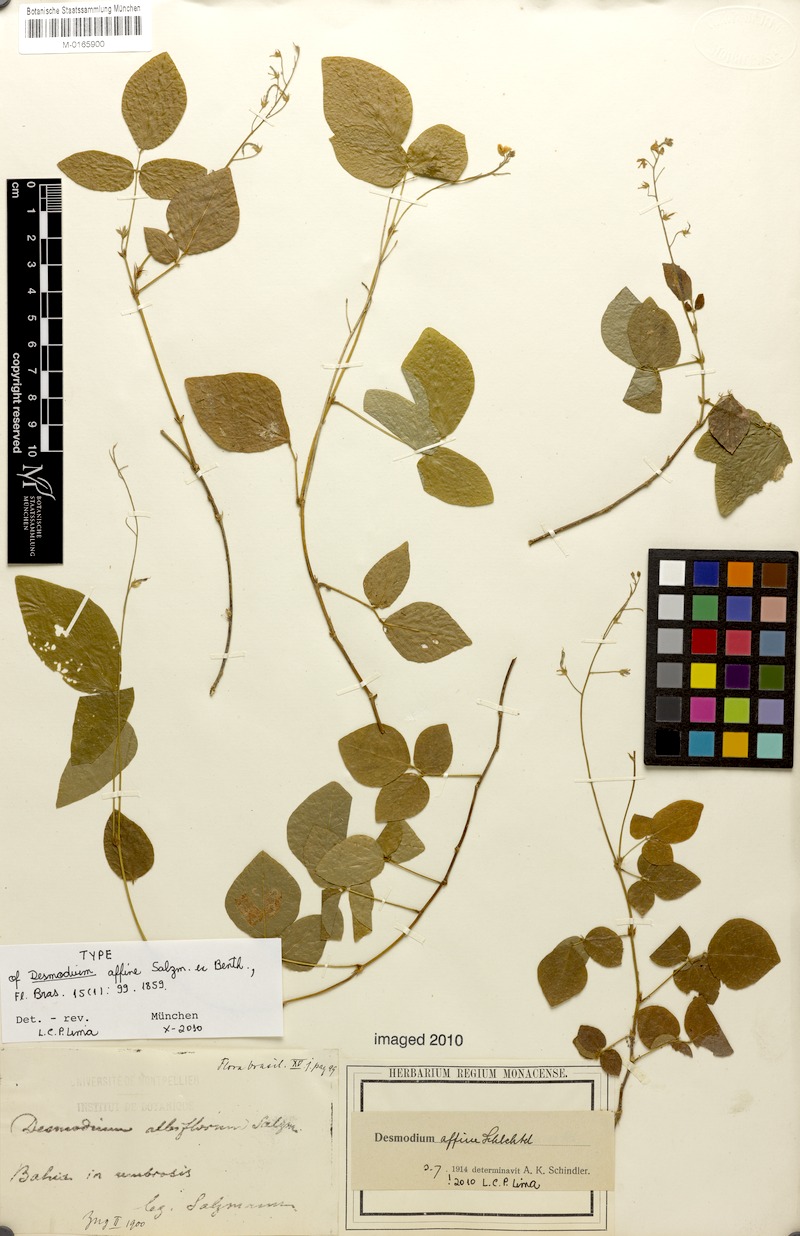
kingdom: Plantae
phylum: Tracheophyta
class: Magnoliopsida
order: Fabales
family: Fabaceae
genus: Desmodium
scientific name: Desmodium affine
